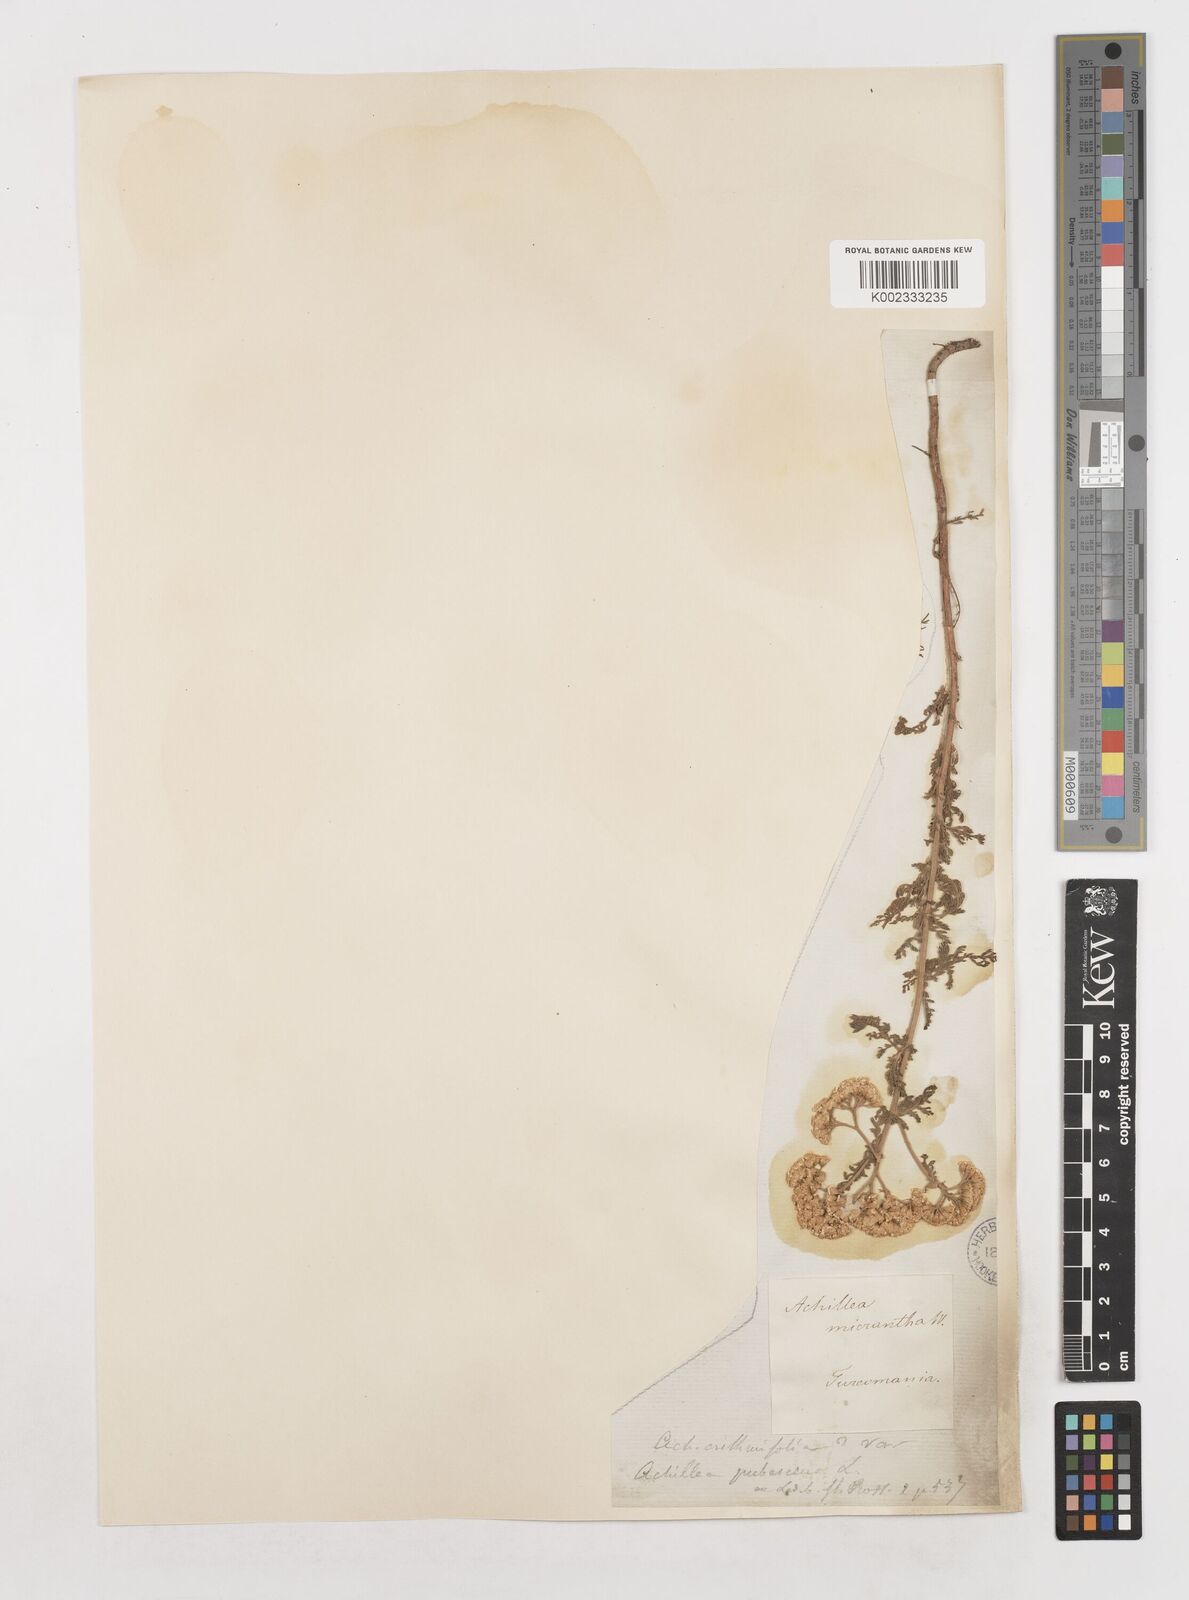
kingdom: Plantae
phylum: Tracheophyta
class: Magnoliopsida
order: Asterales
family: Asteraceae
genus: Achillea
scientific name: Achillea micrantha
